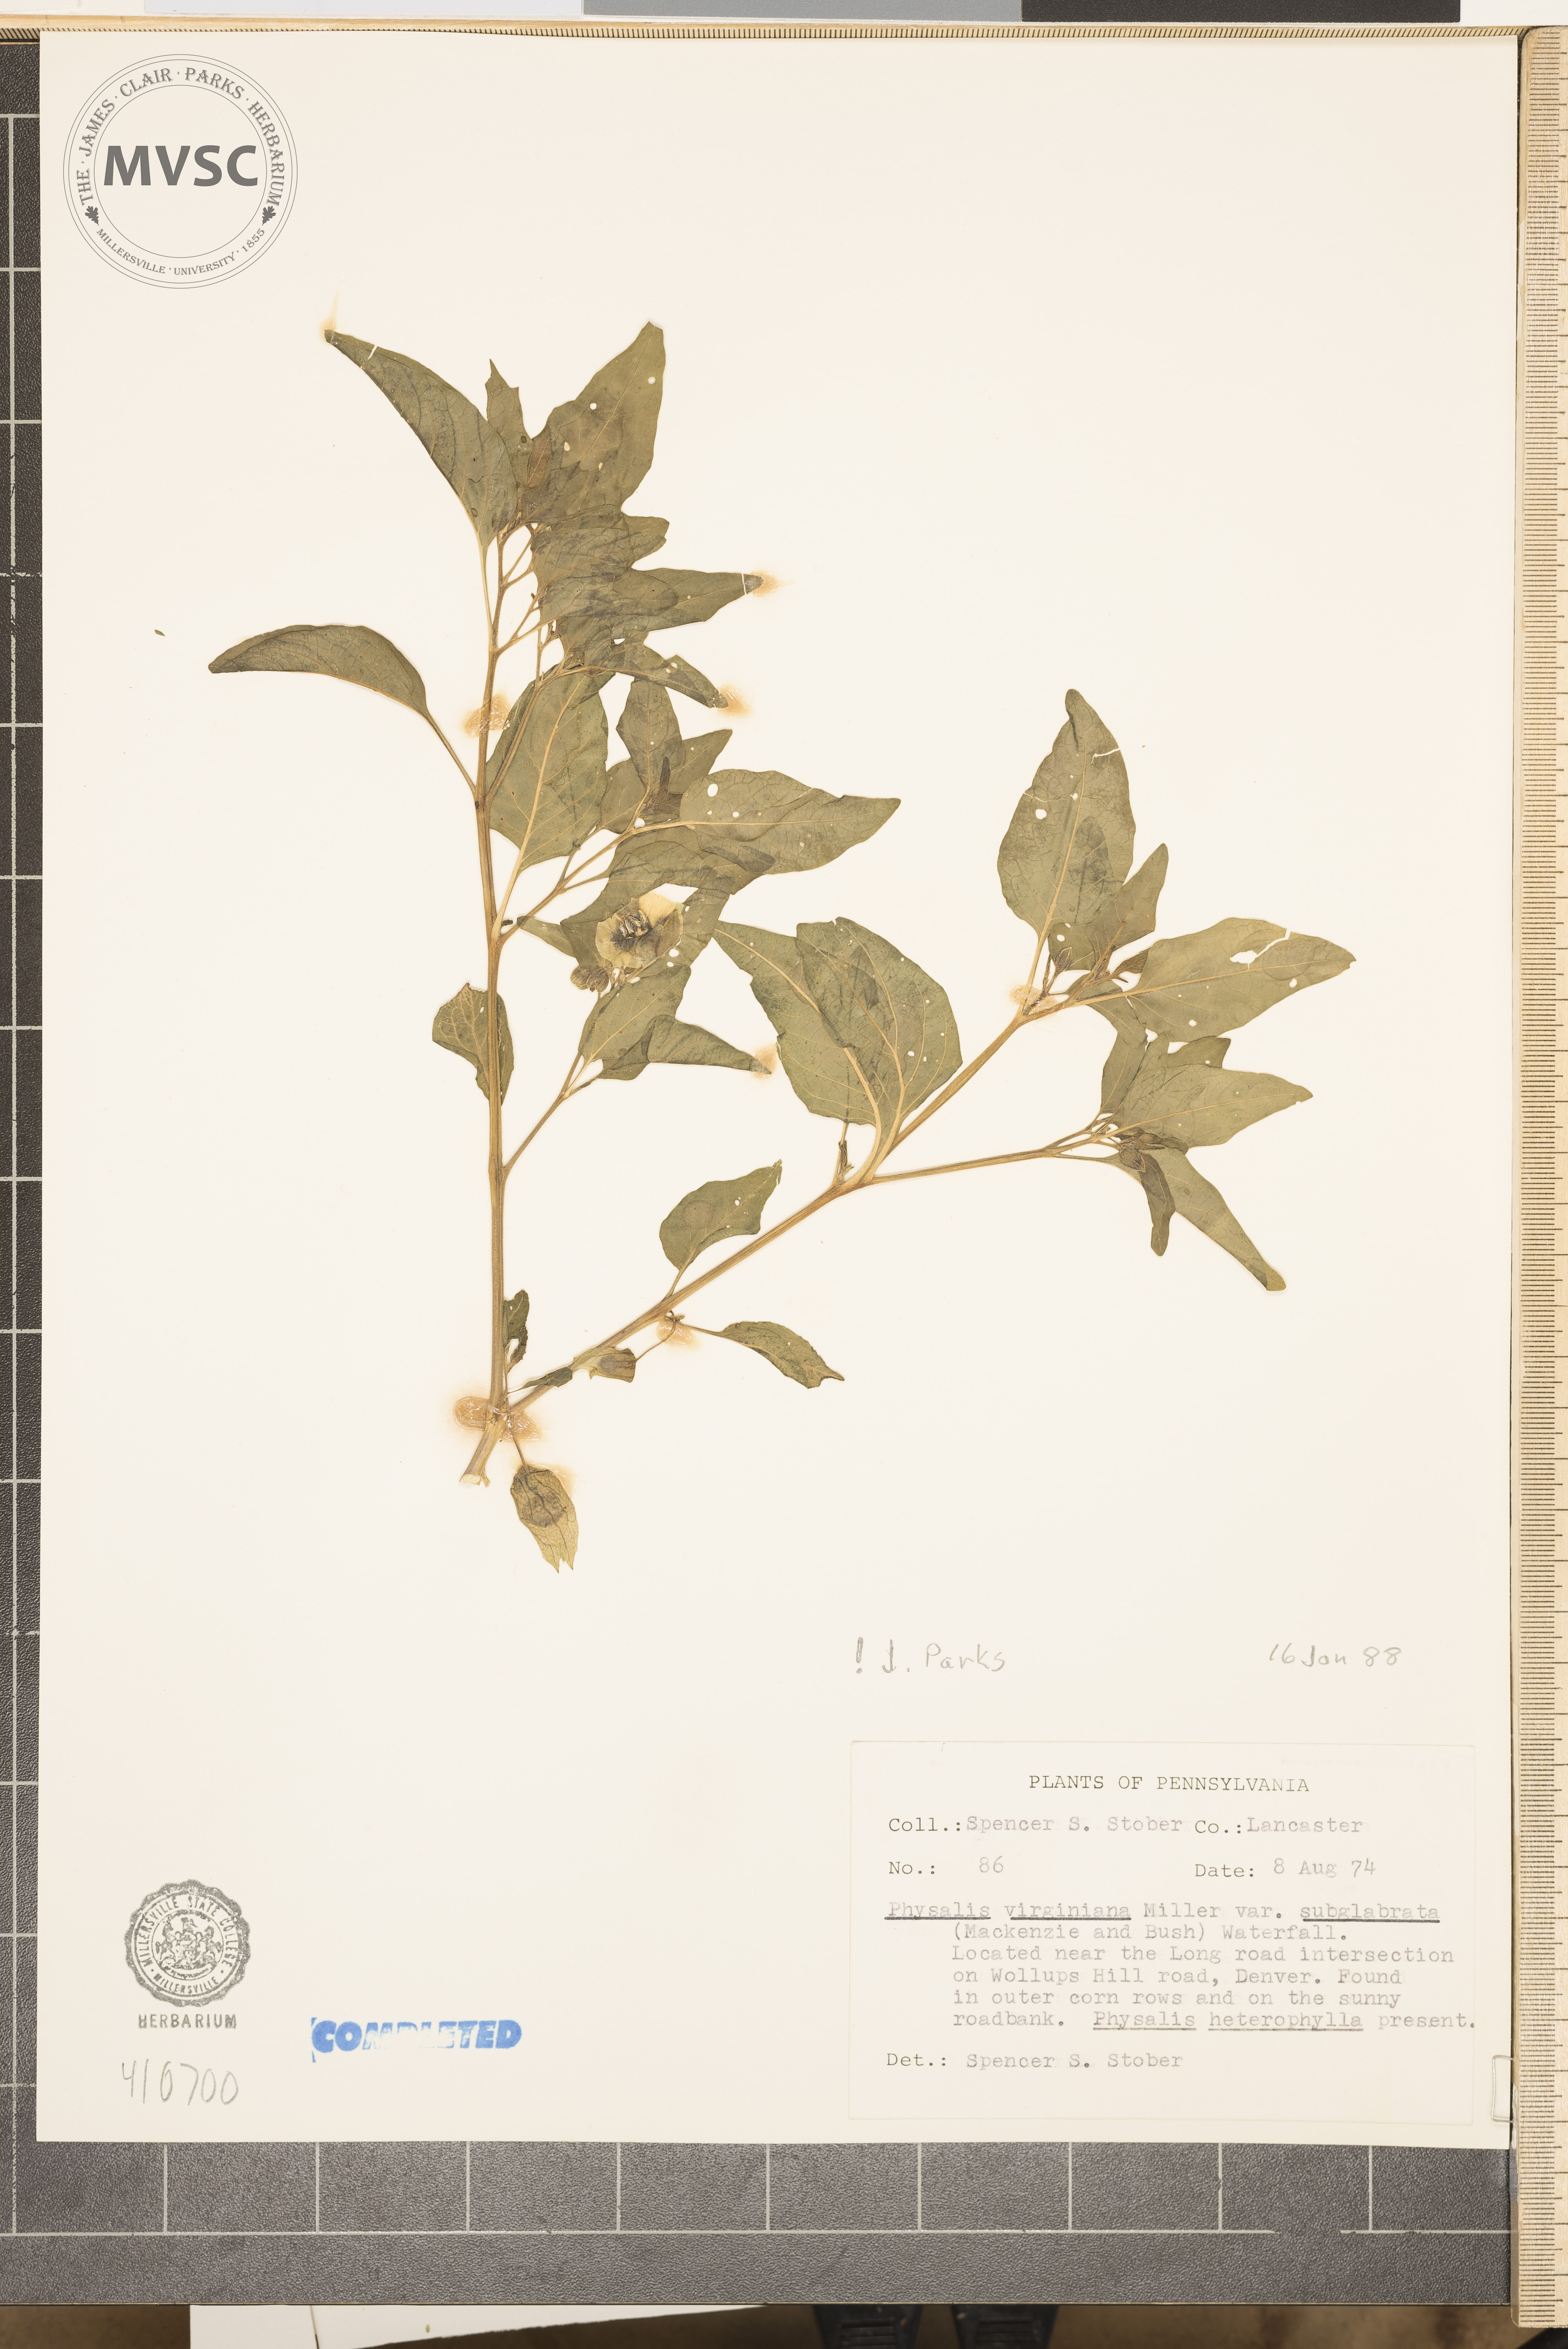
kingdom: Plantae
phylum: Tracheophyta
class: Magnoliopsida
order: Solanales
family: Solanaceae
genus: Physalis
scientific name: Physalis virginiana
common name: Virginia ground-cherry
